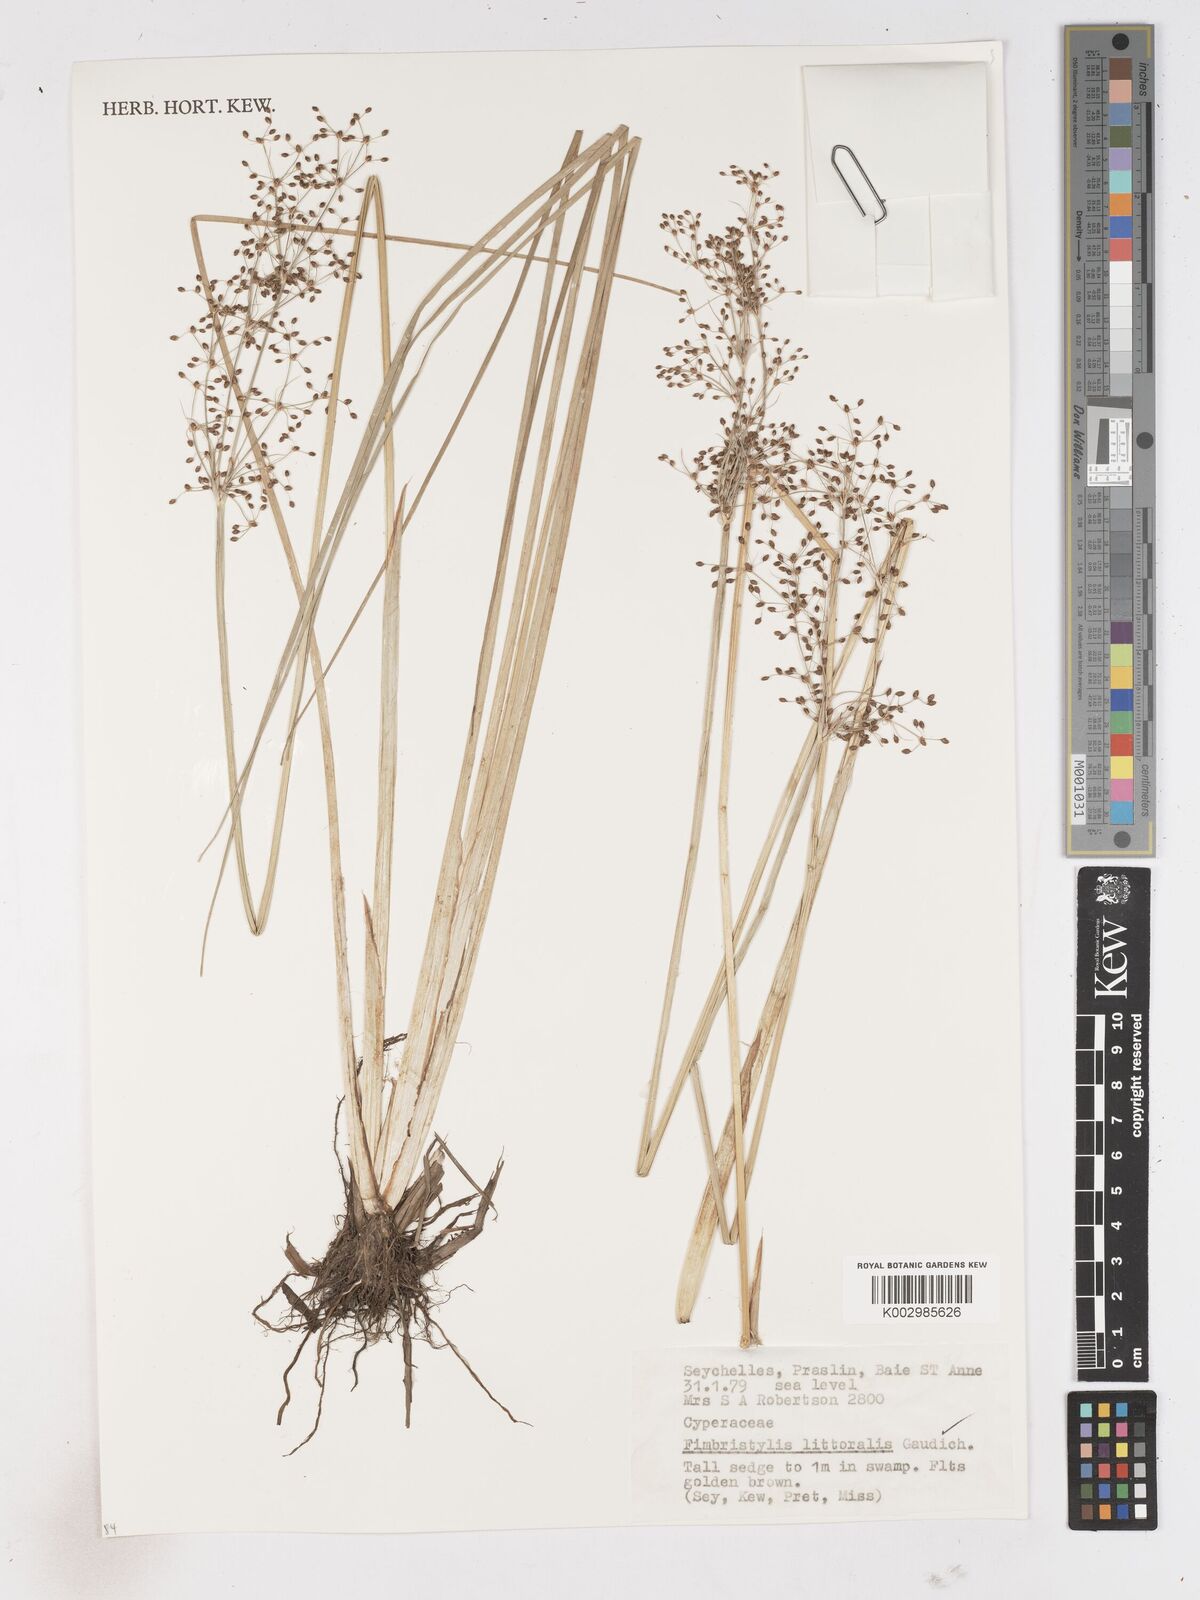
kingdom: Plantae
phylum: Tracheophyta
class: Liliopsida
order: Poales
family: Cyperaceae
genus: Fimbristylis
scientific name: Fimbristylis littoralis
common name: Fimbry
